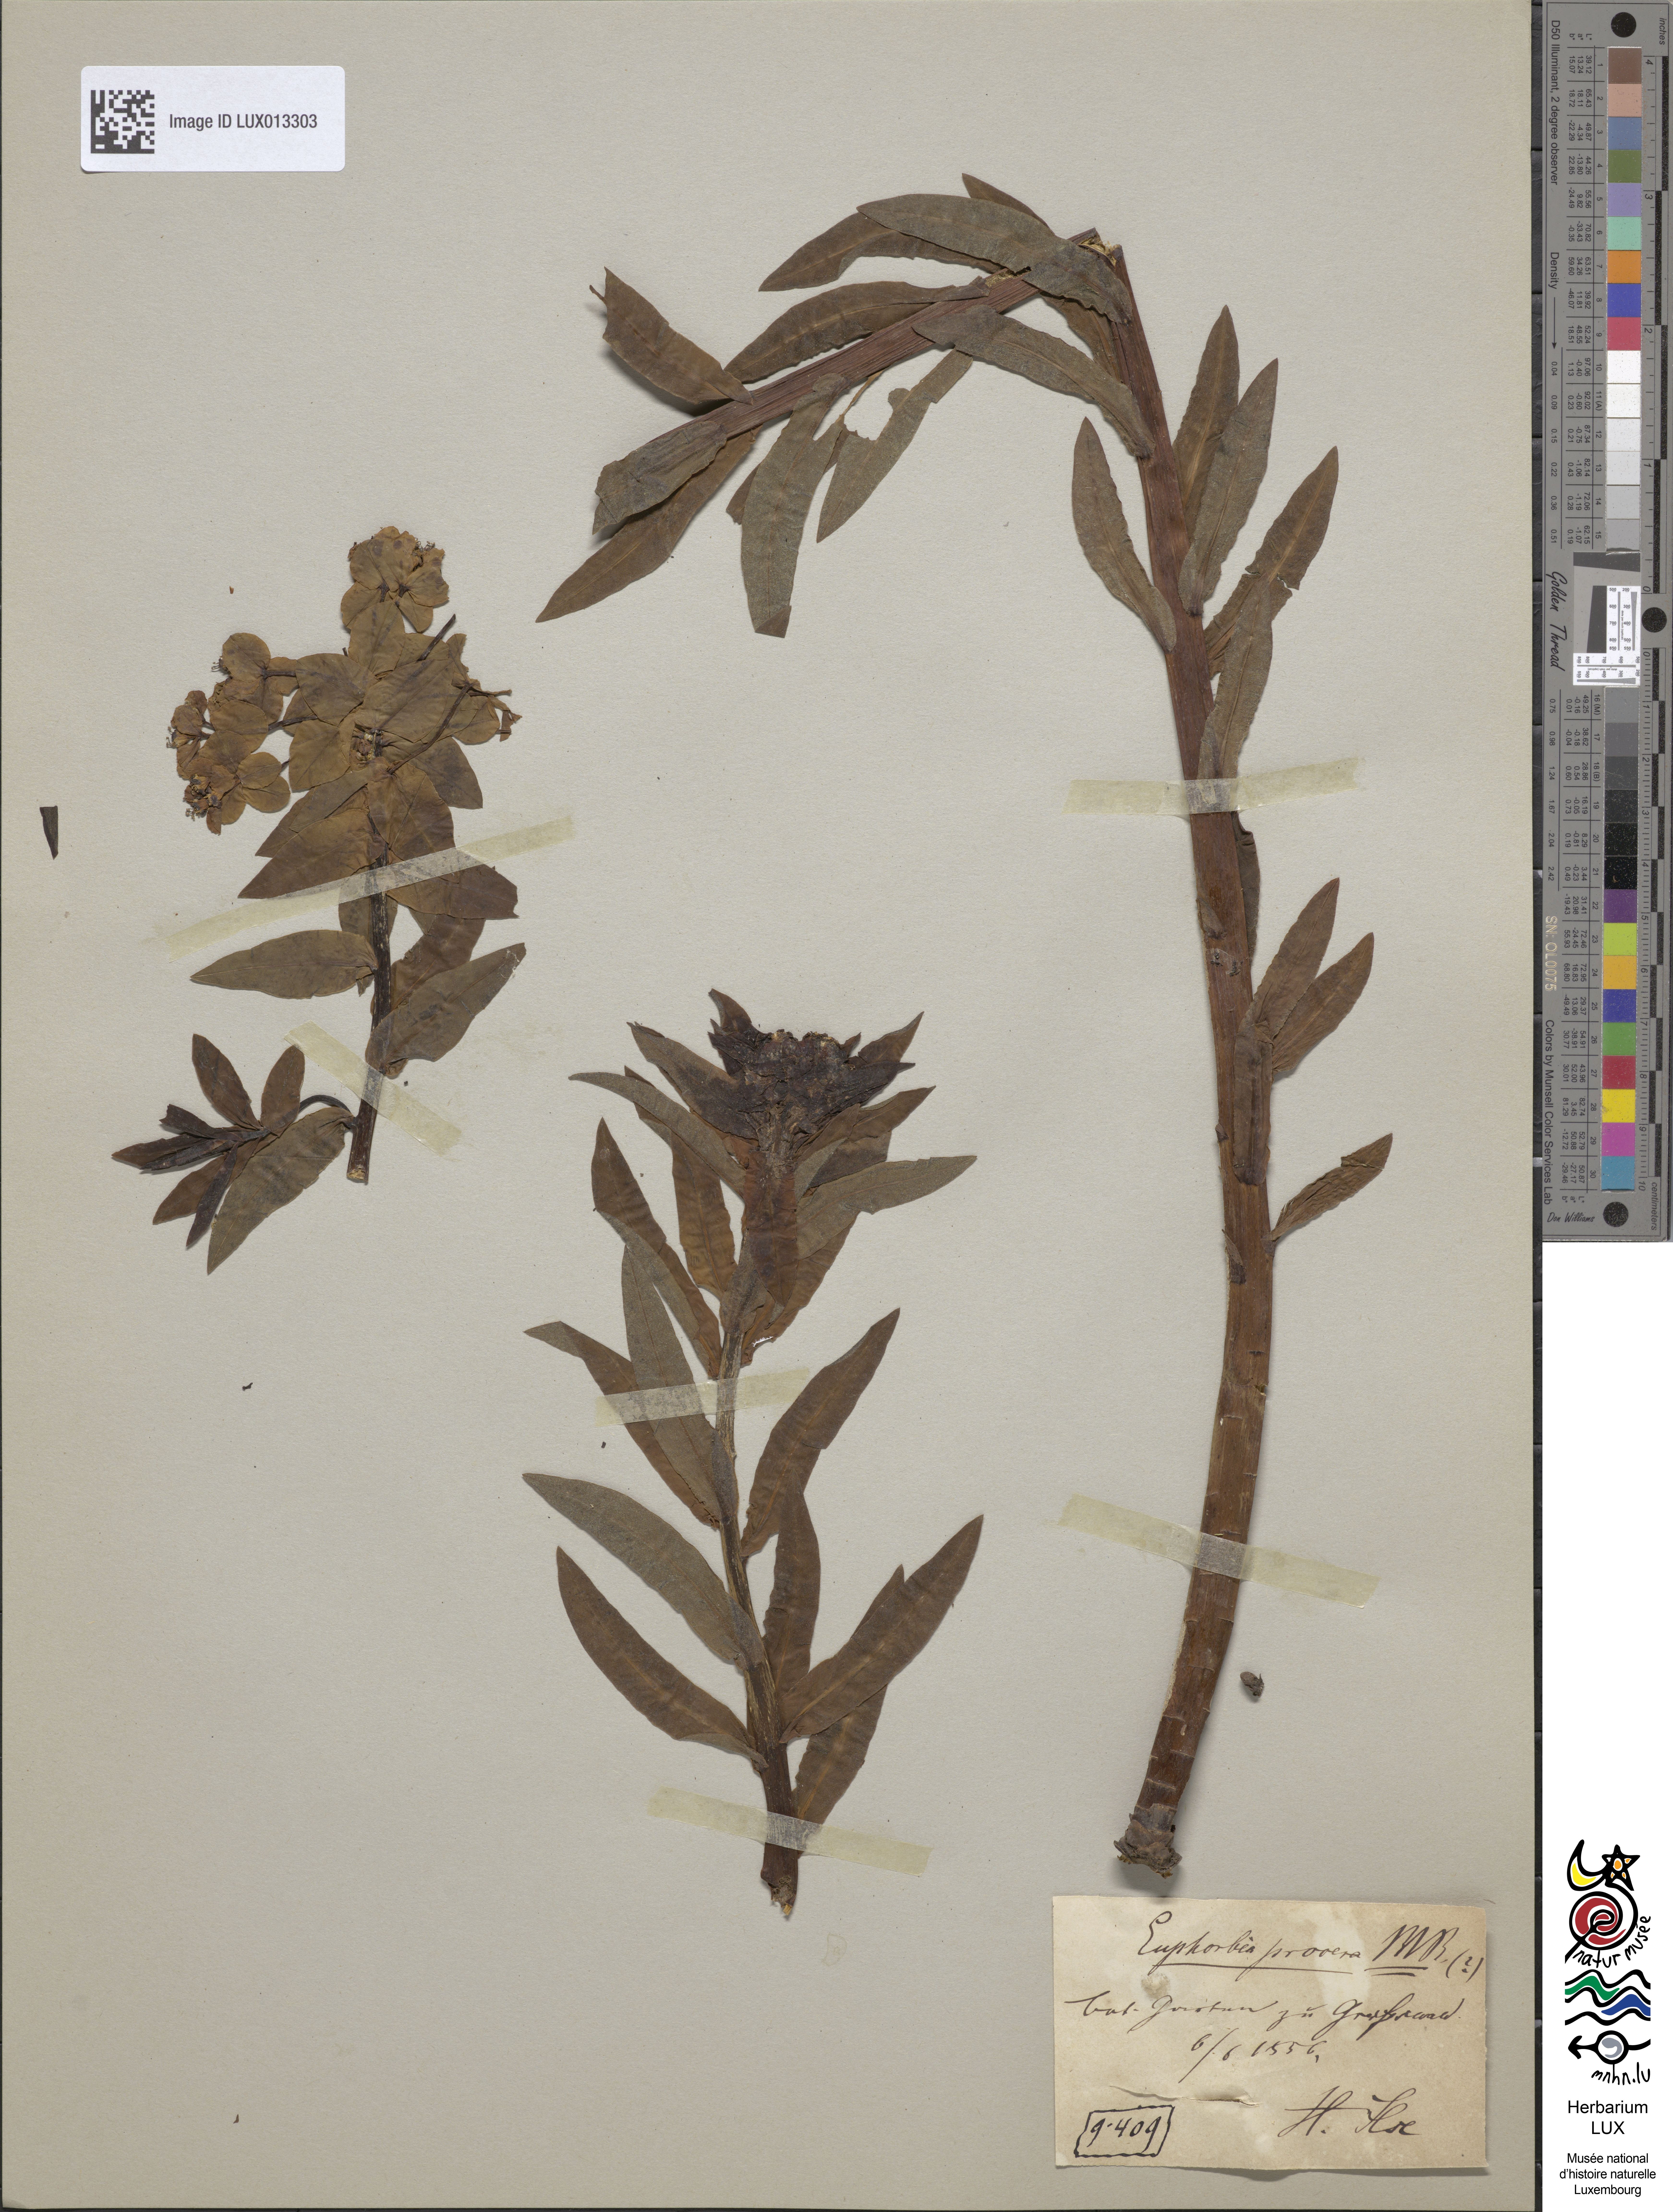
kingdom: Plantae
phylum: Tracheophyta
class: Magnoliopsida
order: Malpighiales
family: Euphorbiaceae
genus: Euphorbia
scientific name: Euphorbia illirica
